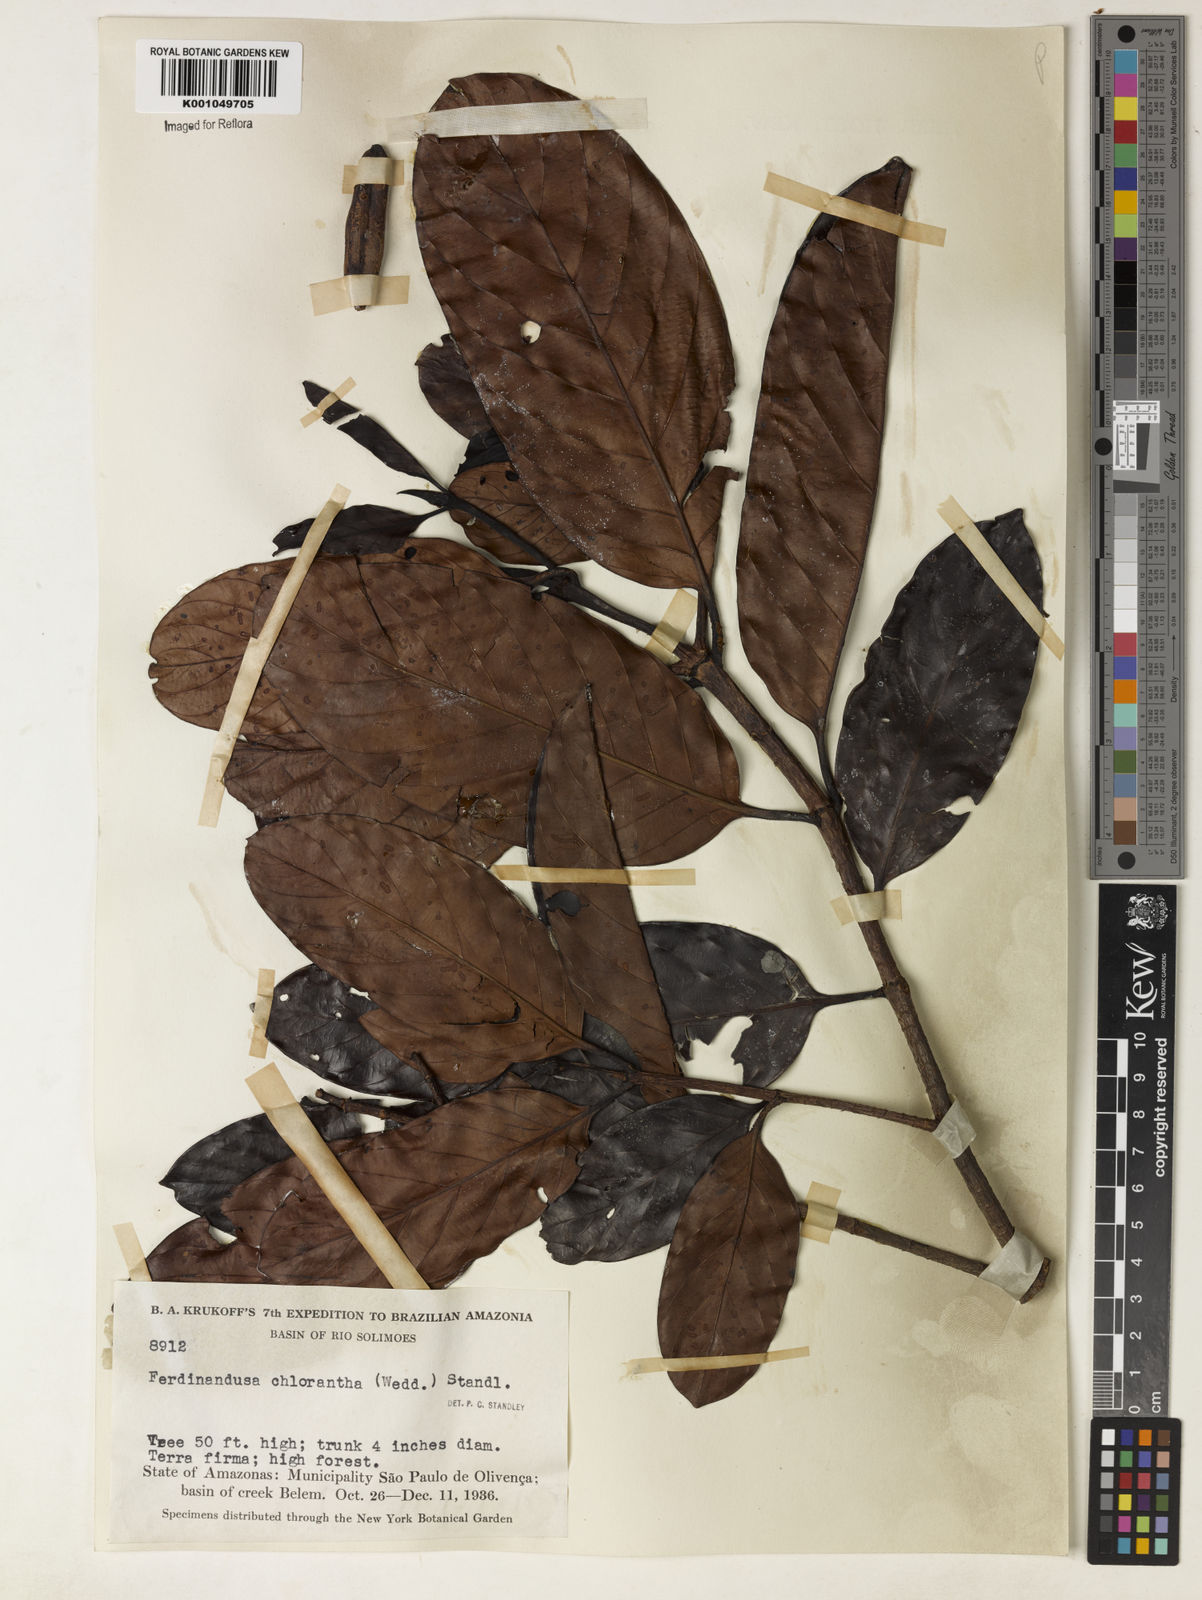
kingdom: Plantae
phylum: Tracheophyta
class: Magnoliopsida
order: Gentianales
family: Rubiaceae
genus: Ferdinandusa
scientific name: Ferdinandusa chlorantha
